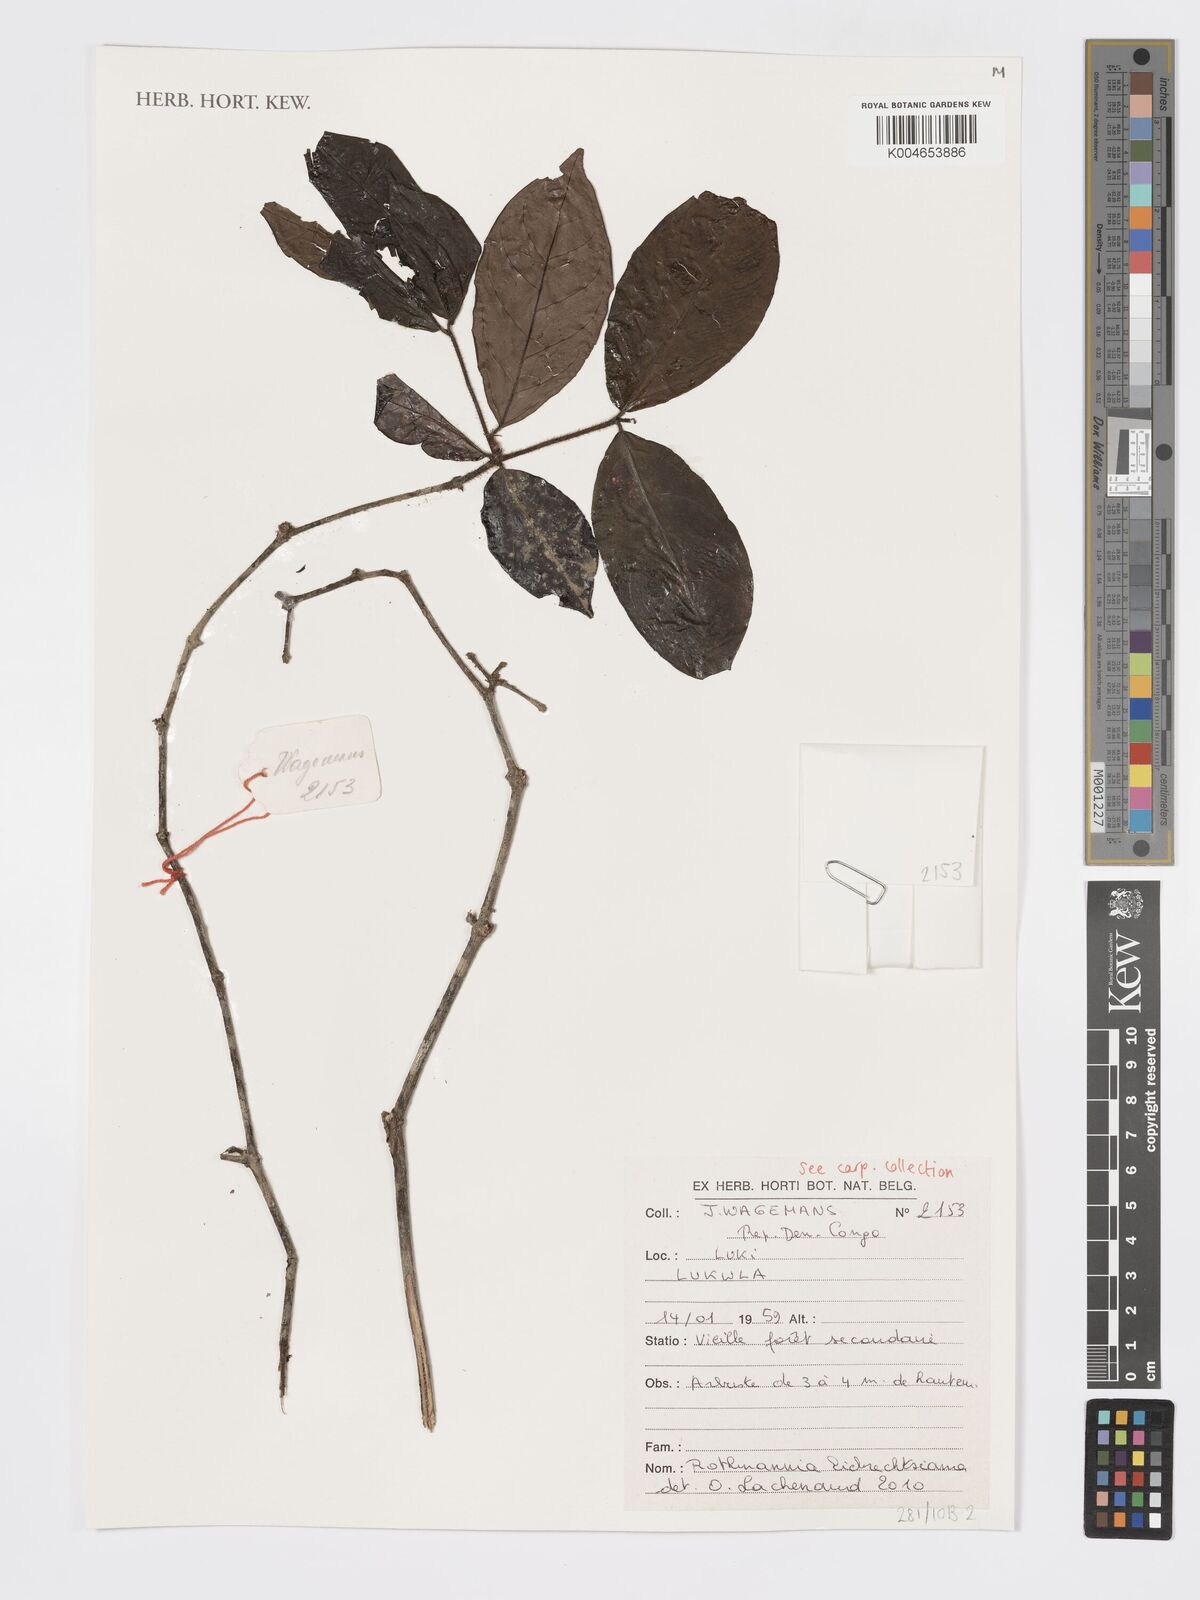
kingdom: Plantae
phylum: Tracheophyta
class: Magnoliopsida
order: Gentianales
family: Rubiaceae
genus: Rothmannia
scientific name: Rothmannia liebrechtsiana
